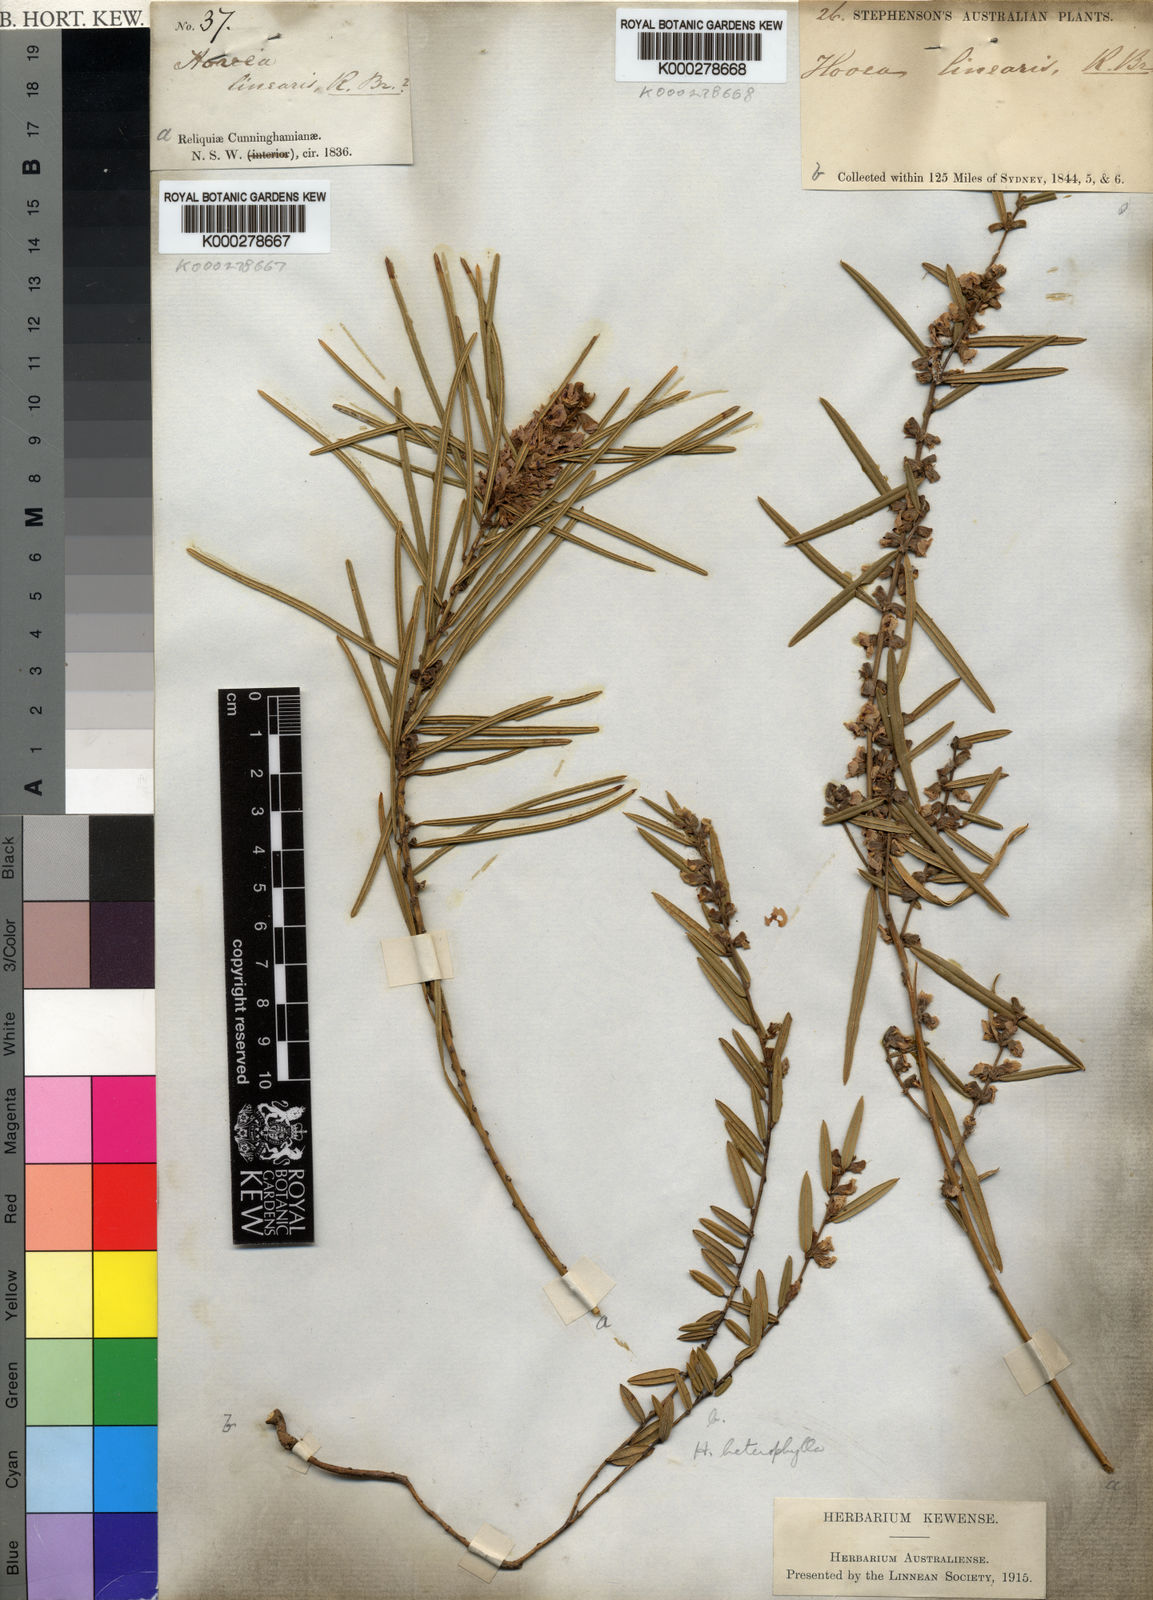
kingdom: Plantae
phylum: Tracheophyta
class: Magnoliopsida
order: Fabales
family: Fabaceae
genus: Hovea
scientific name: Hovea heterophylla
